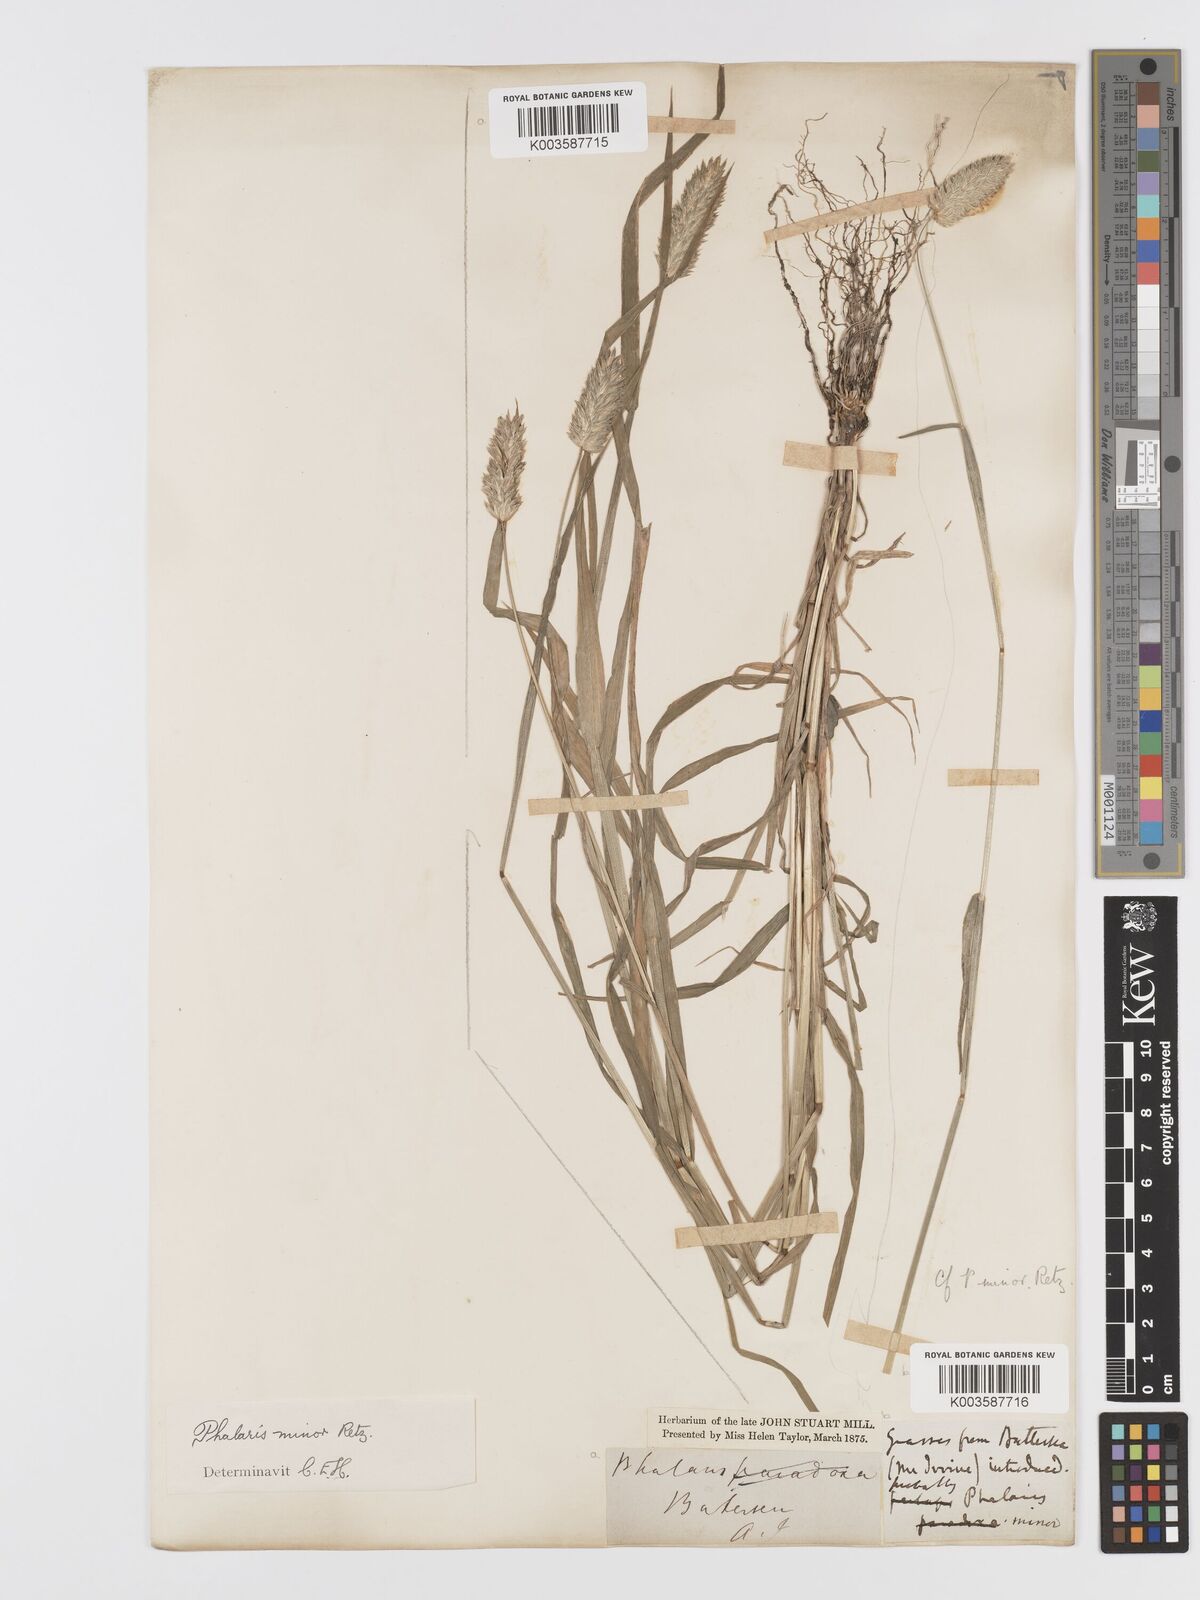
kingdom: Plantae
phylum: Tracheophyta
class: Liliopsida
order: Poales
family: Poaceae
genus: Phalaris
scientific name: Phalaris minor
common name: Littleseed canarygrass
